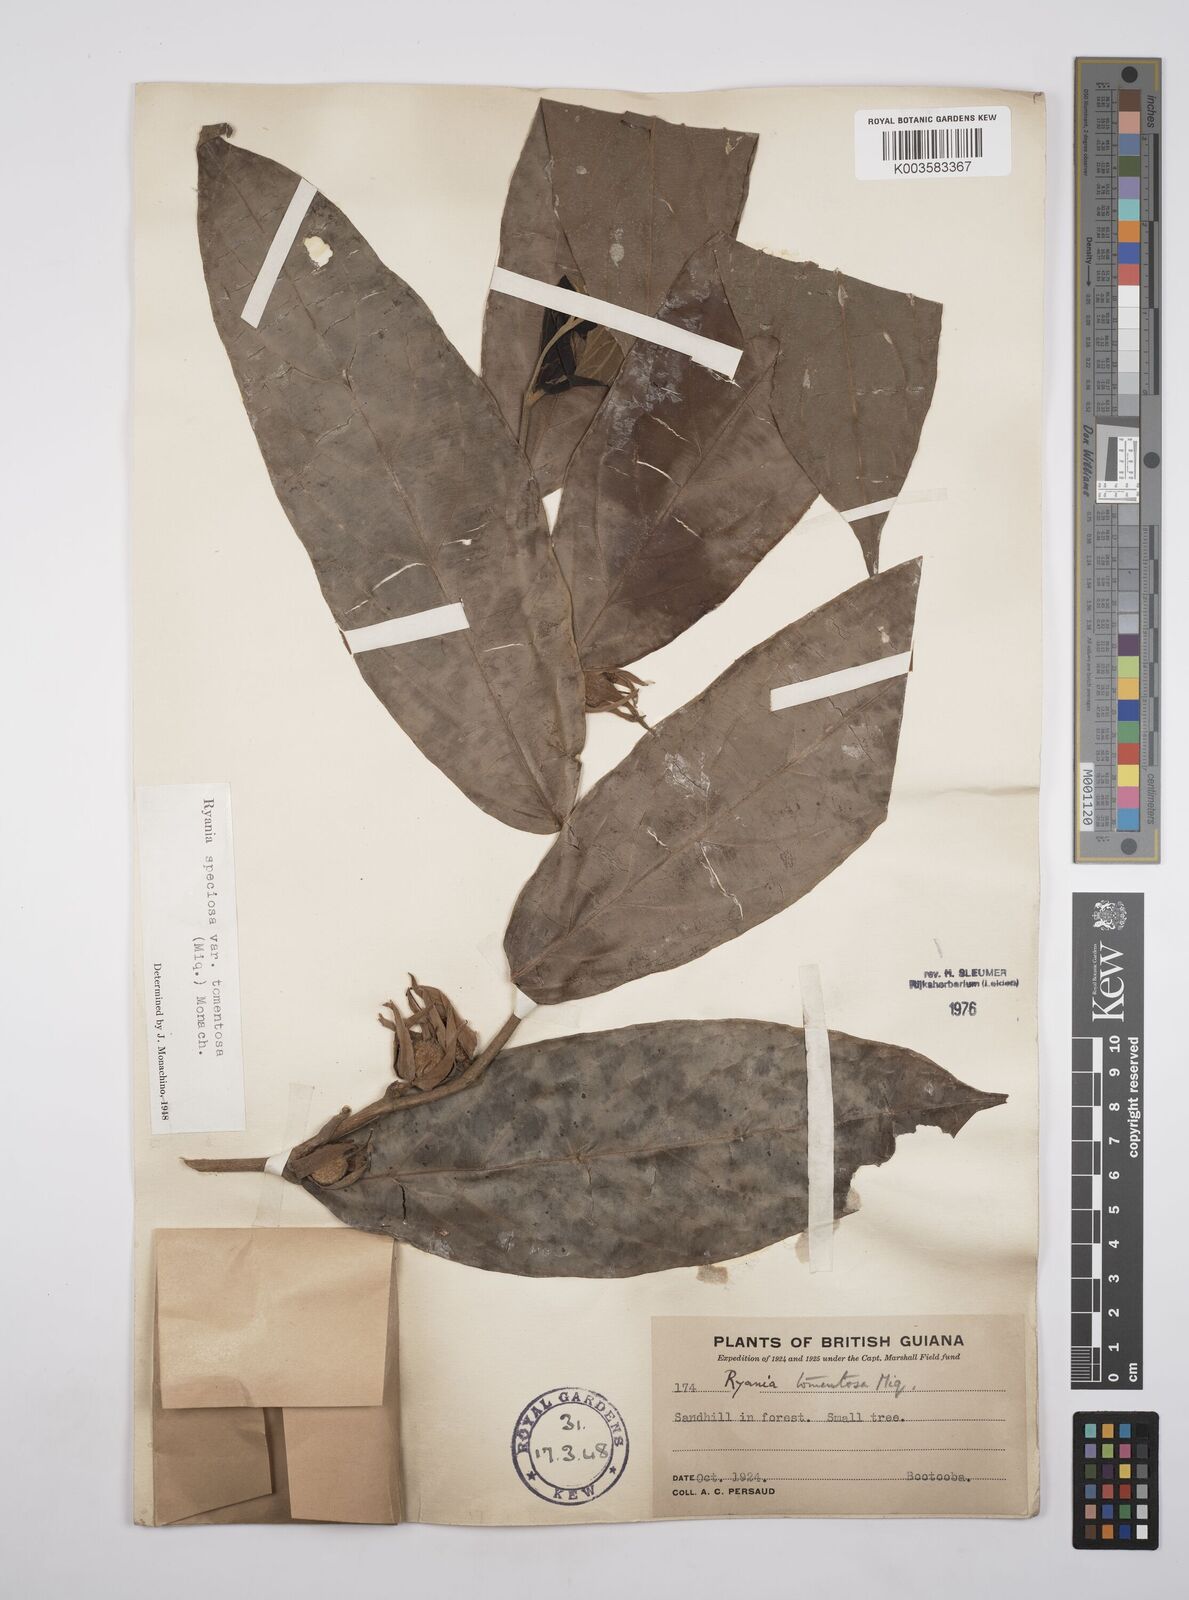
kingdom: Plantae
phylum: Tracheophyta
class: Magnoliopsida
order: Malpighiales
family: Salicaceae
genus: Ryania
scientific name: Ryania speciosa
